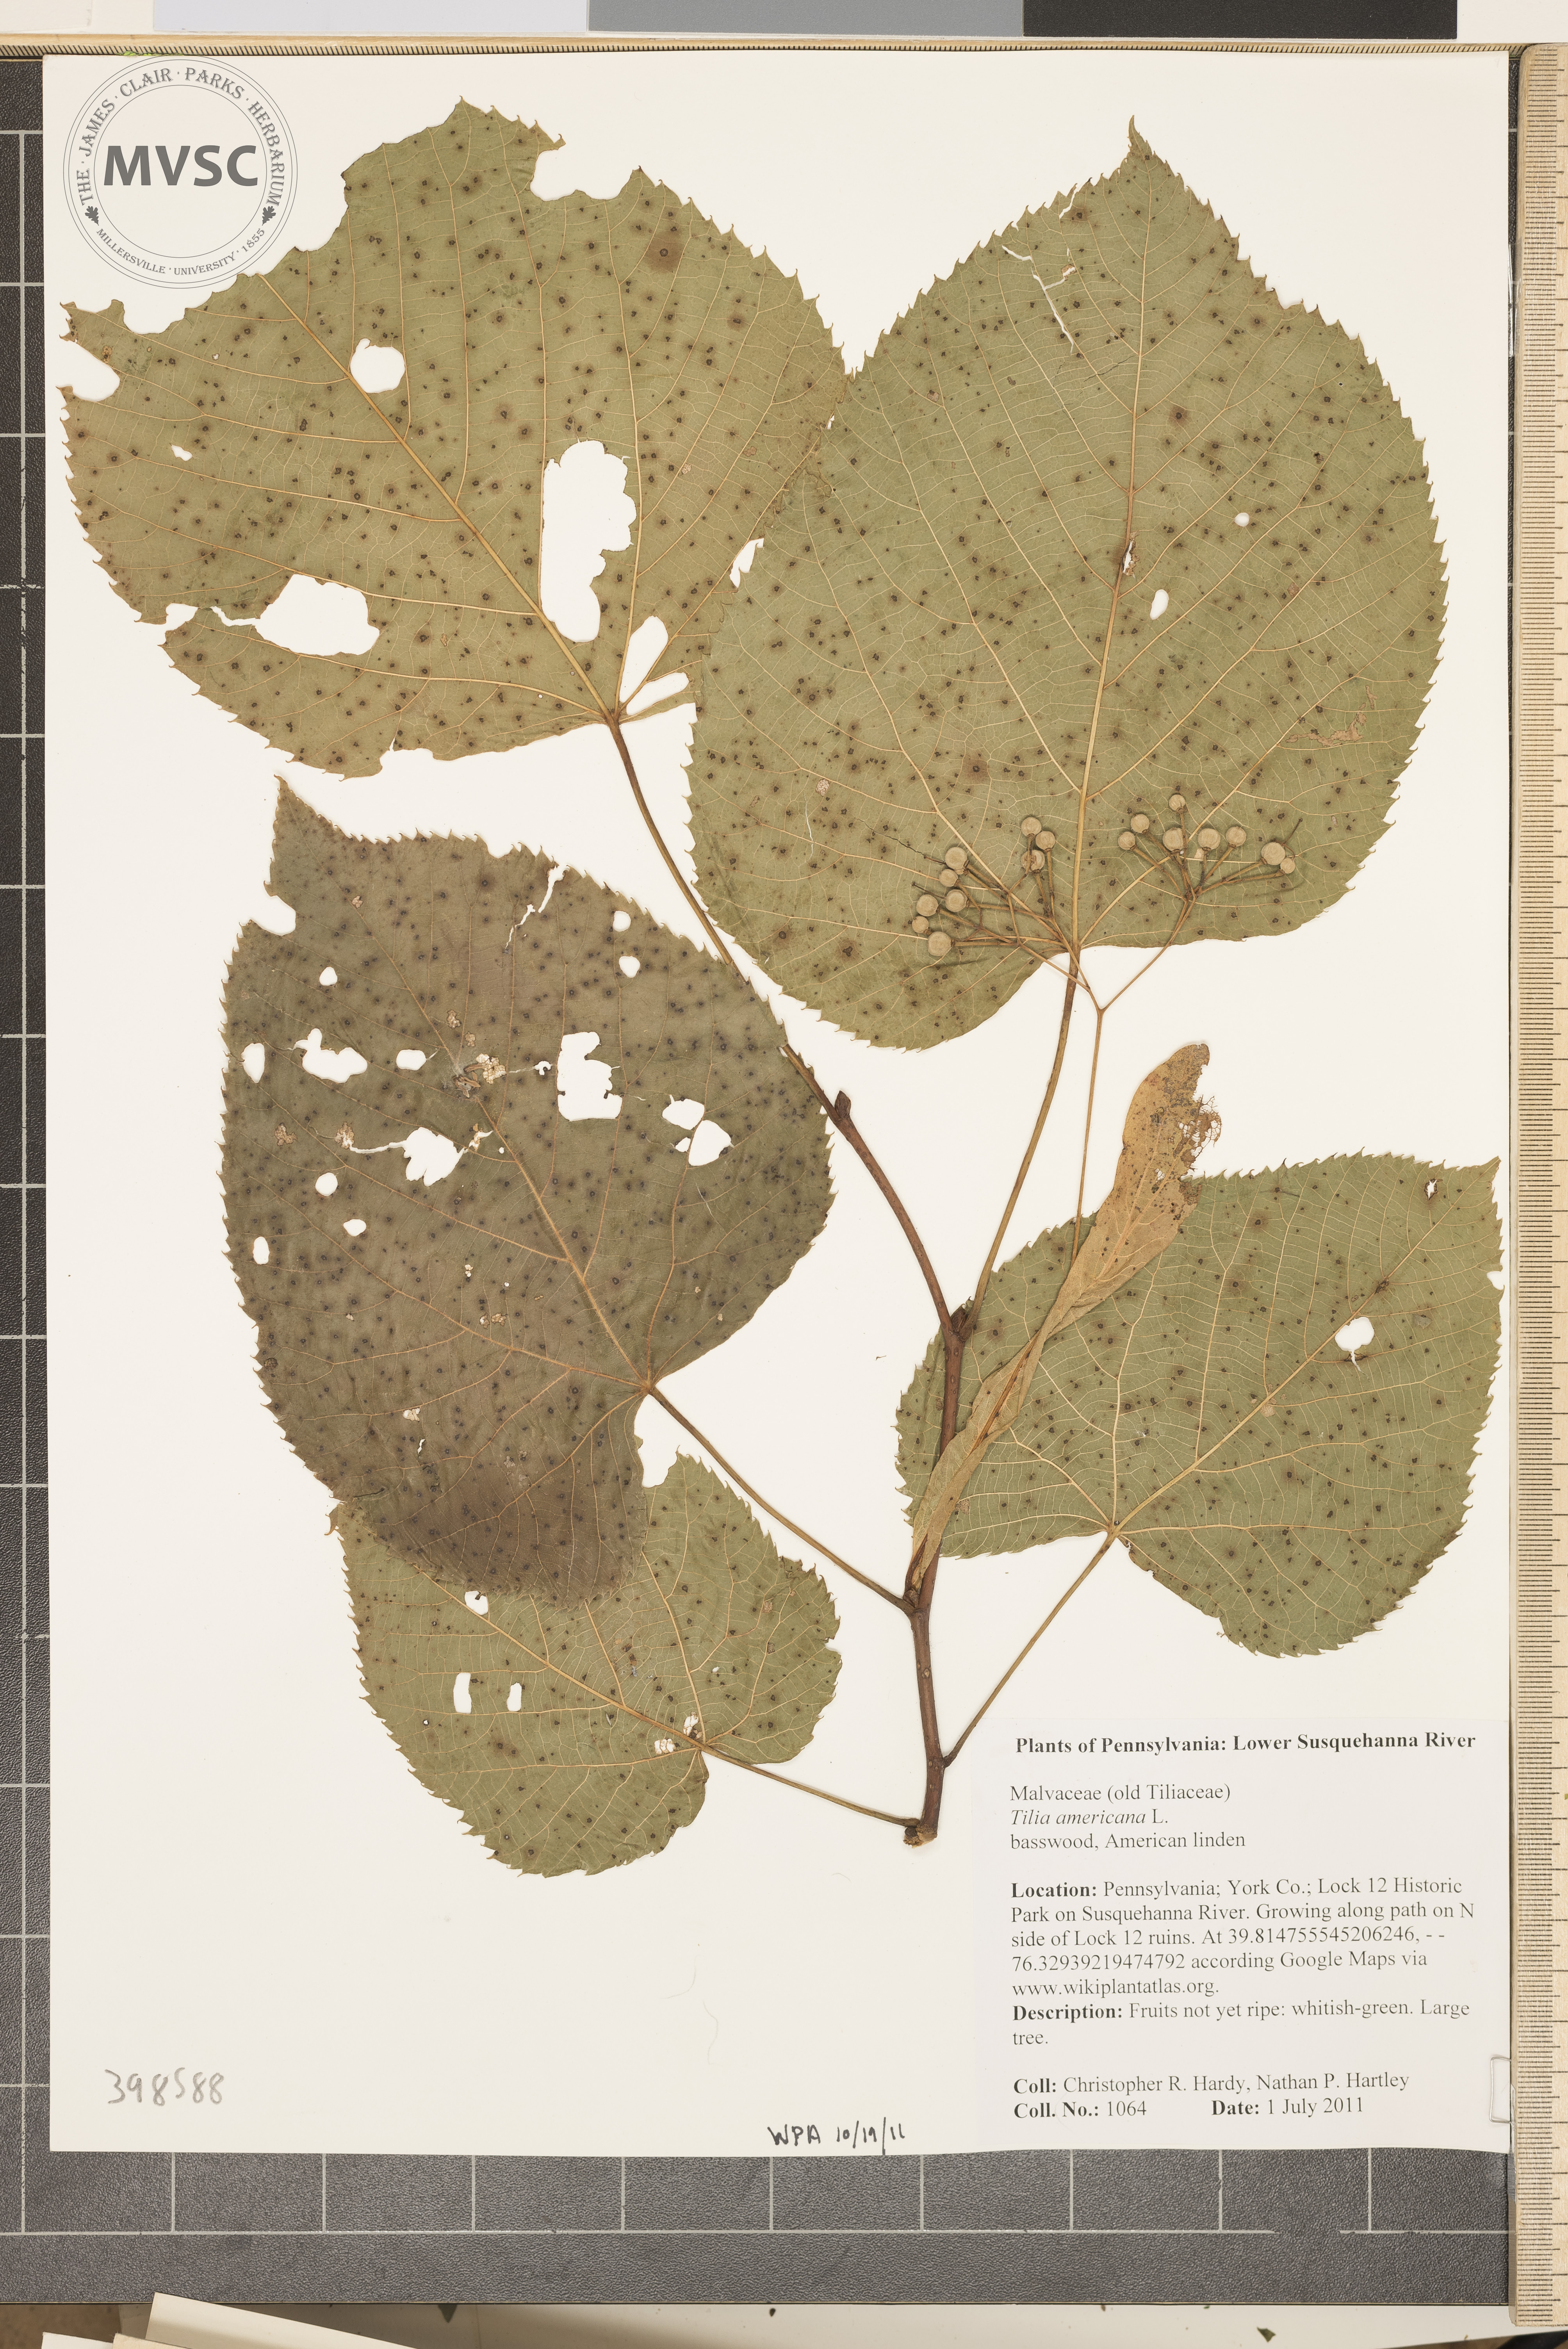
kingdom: Plantae
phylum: Tracheophyta
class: Magnoliopsida
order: Malvales
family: Malvaceae
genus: Tilia
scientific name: Tilia americana
